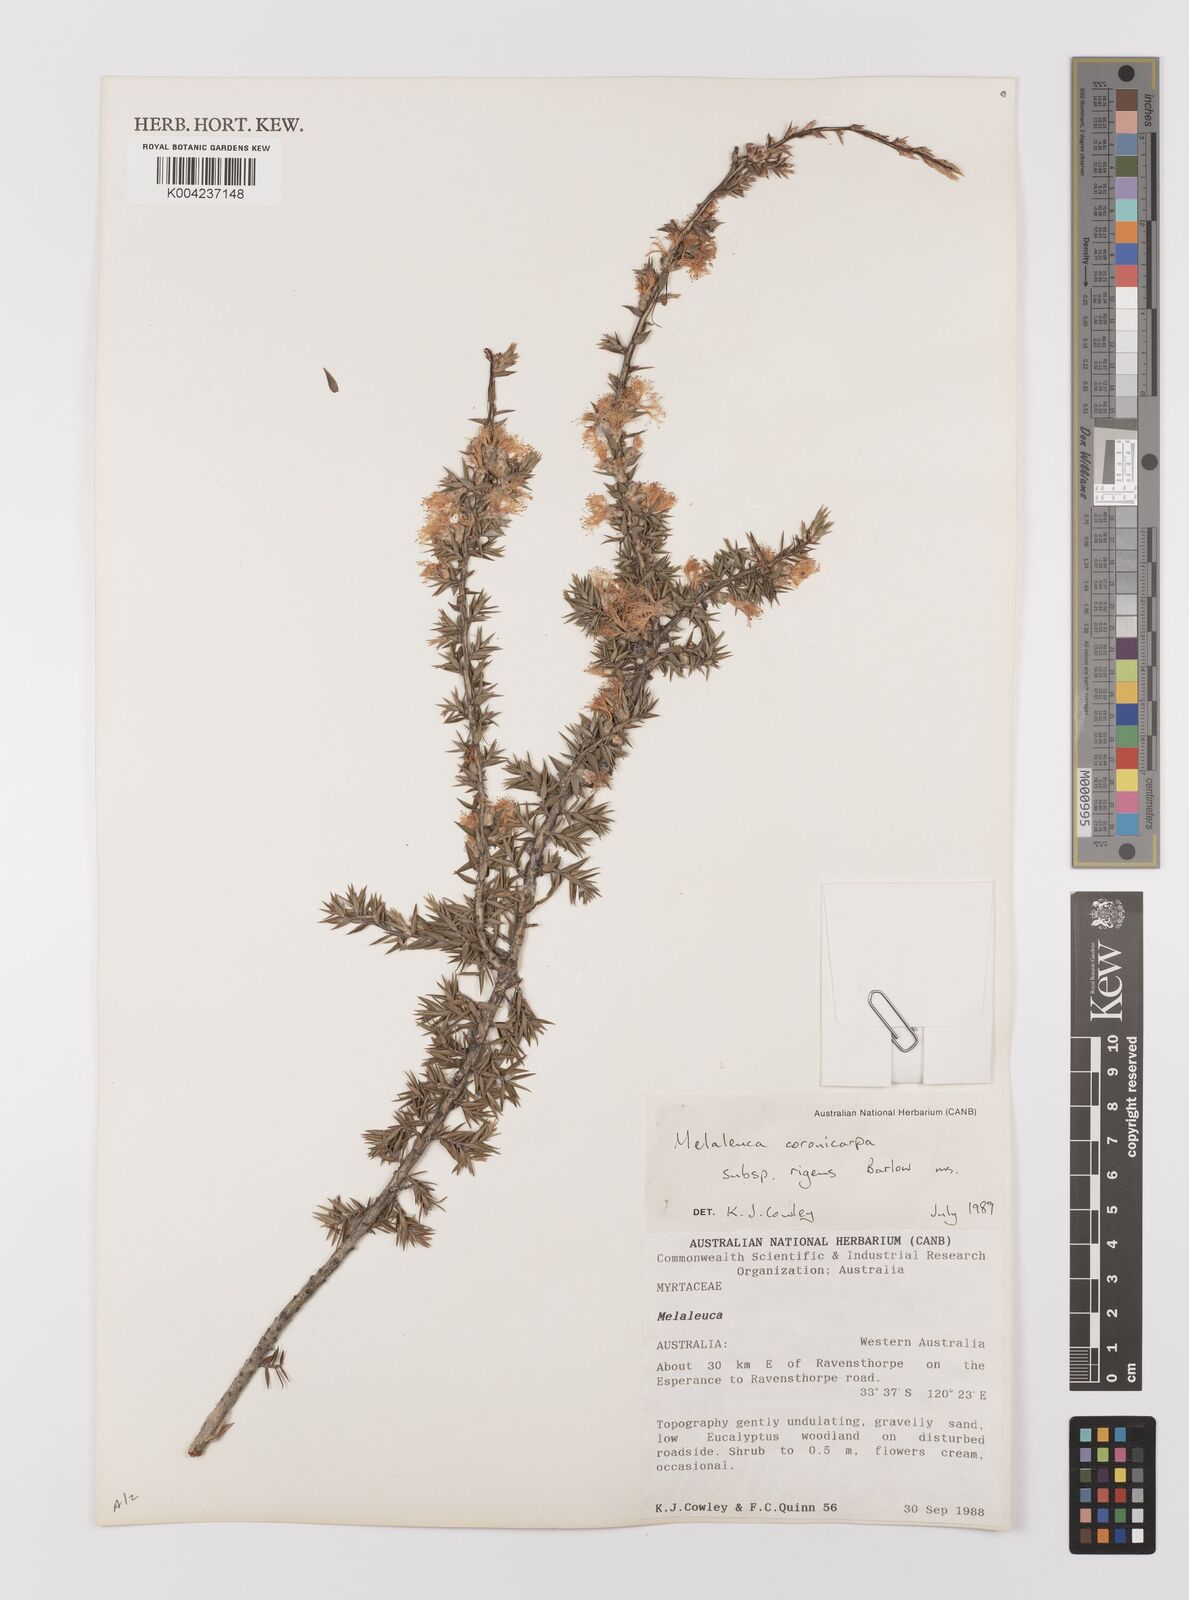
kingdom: Plantae
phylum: Tracheophyta
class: Magnoliopsida
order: Myrtales
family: Myrtaceae
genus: Melaleuca
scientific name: Melaleuca coronicarpa
